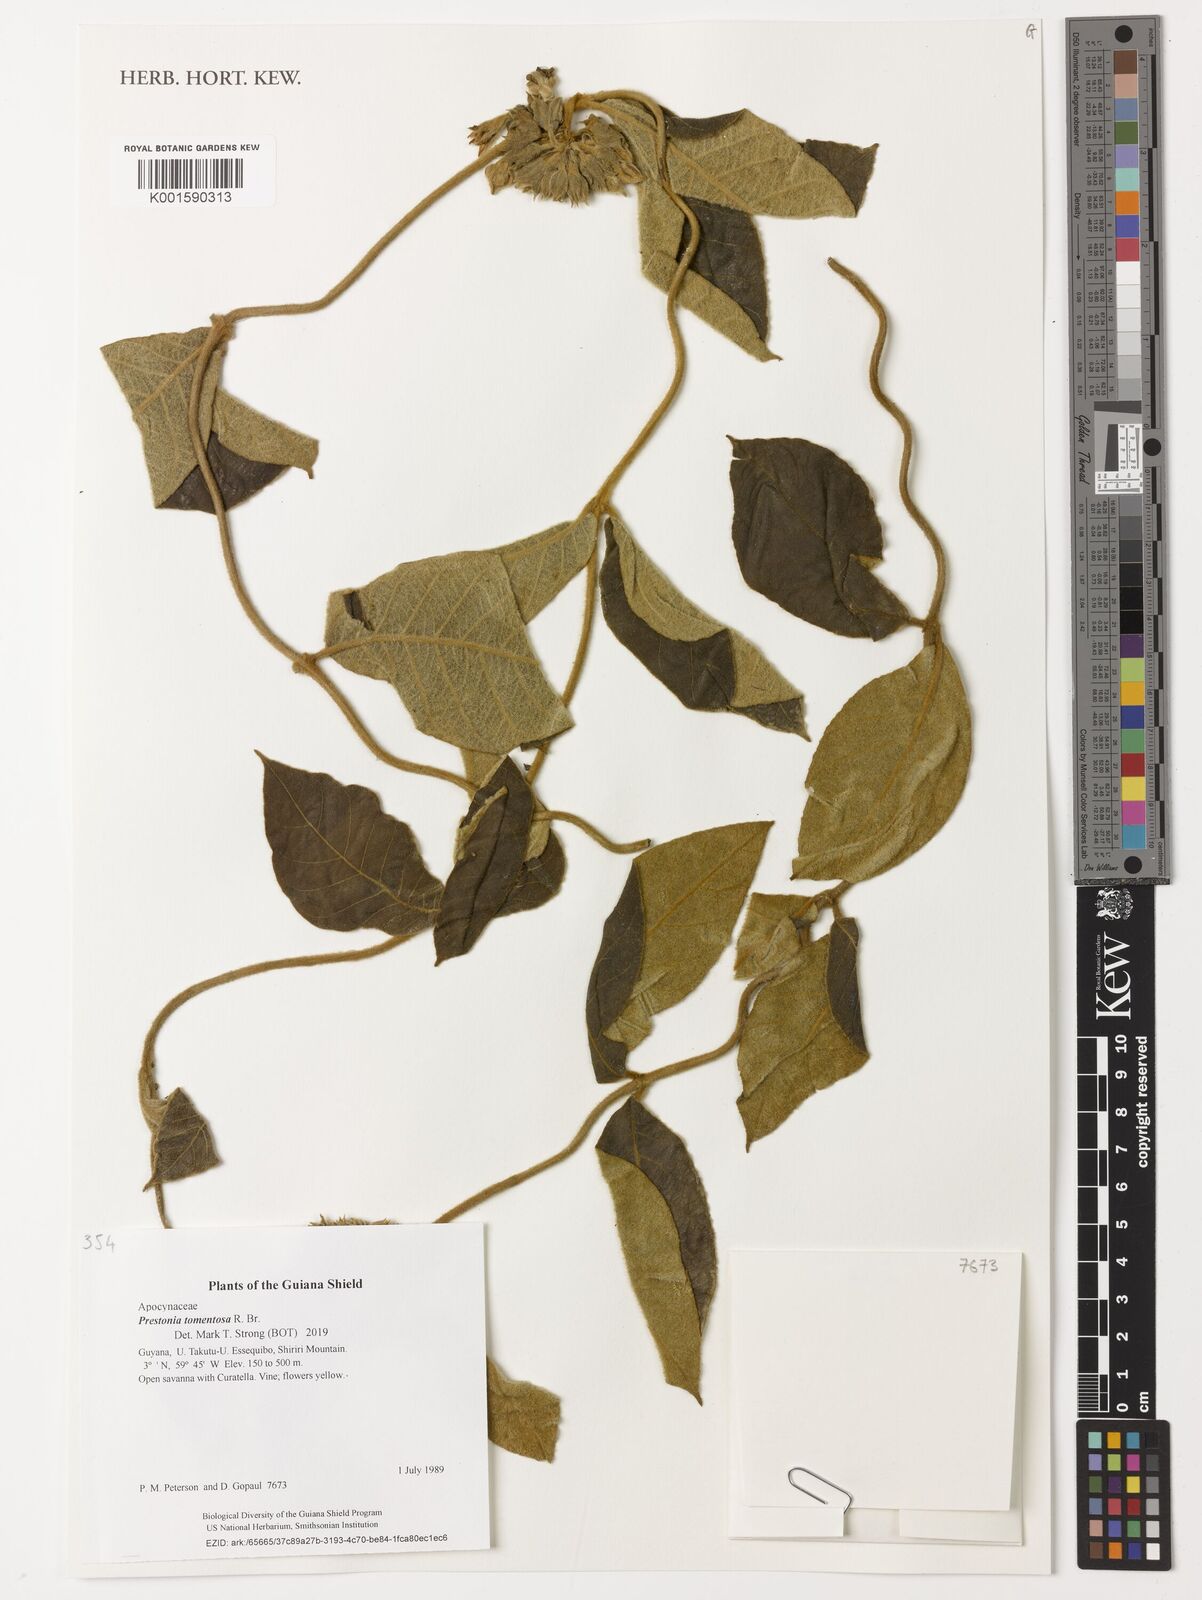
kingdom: Plantae
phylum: Tracheophyta
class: Magnoliopsida
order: Gentianales
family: Apocynaceae
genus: Prestonia
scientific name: Prestonia tomentosa
